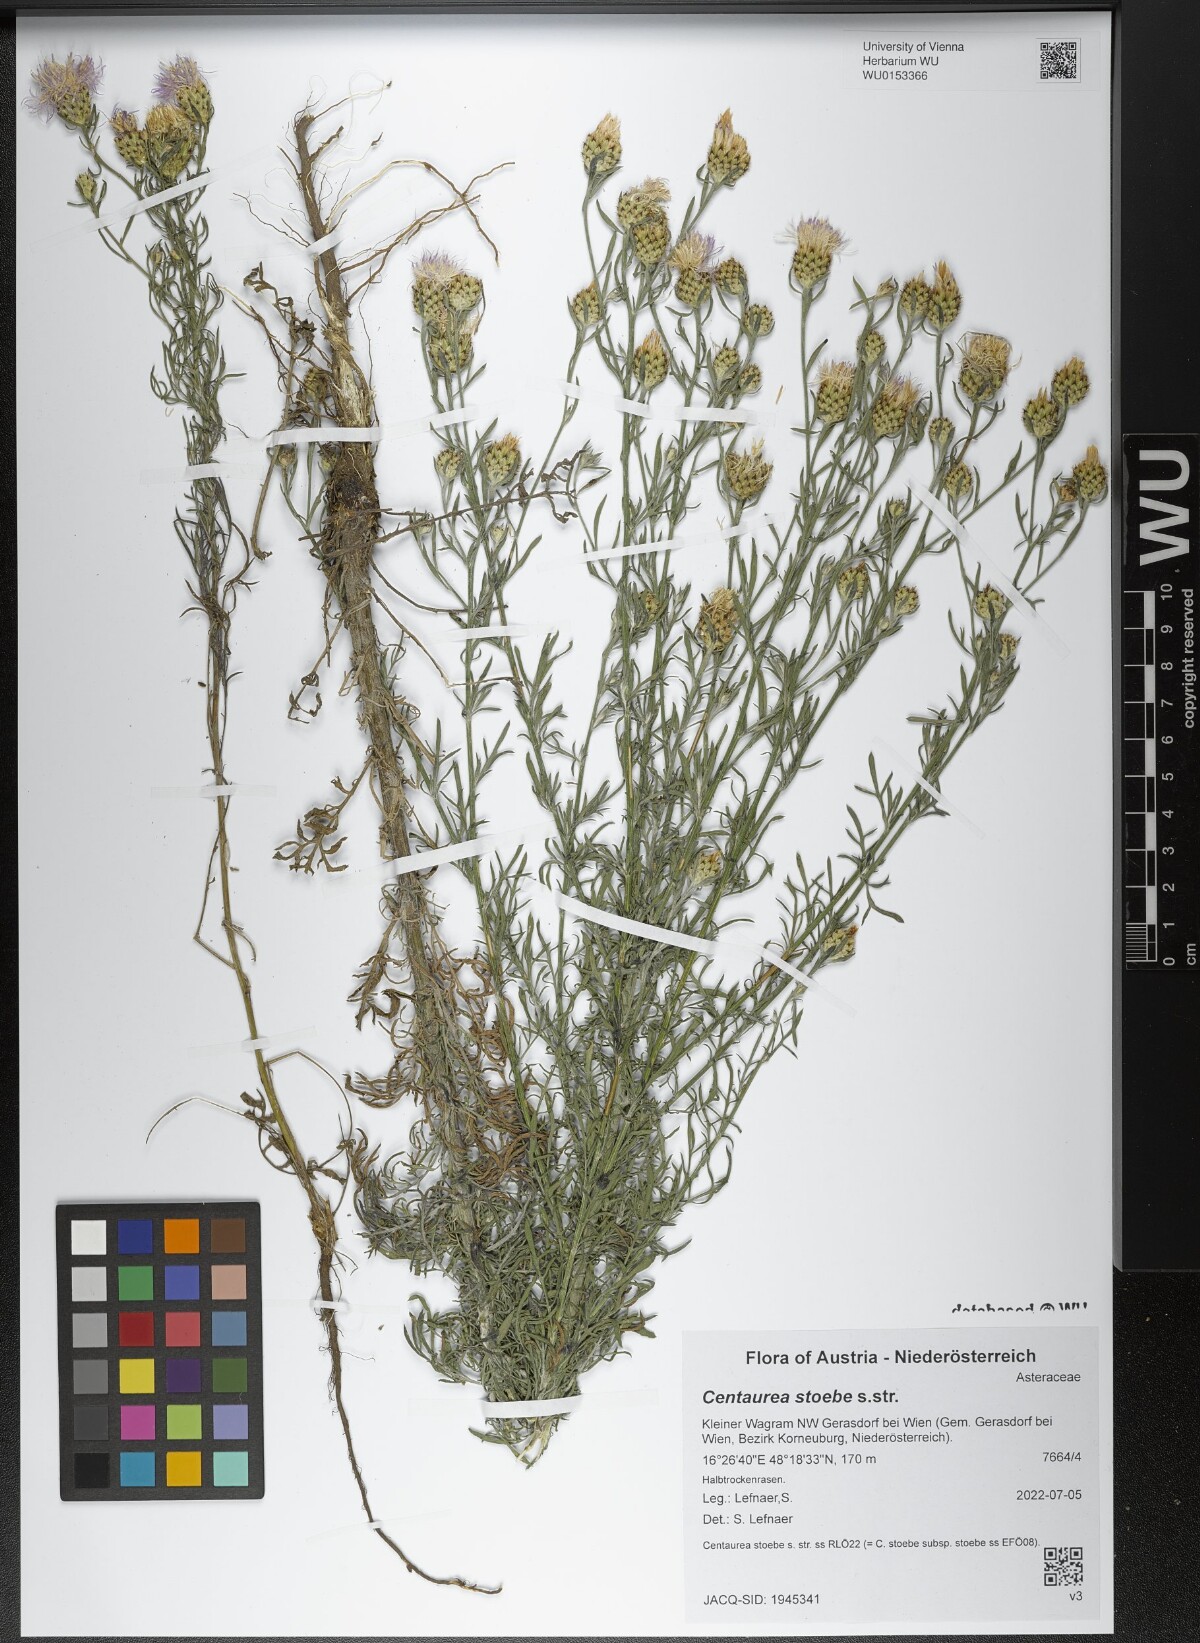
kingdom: Plantae
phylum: Tracheophyta
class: Magnoliopsida
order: Asterales
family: Asteraceae
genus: Centaurea
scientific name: Centaurea stoebe
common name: Spotted knapweed
